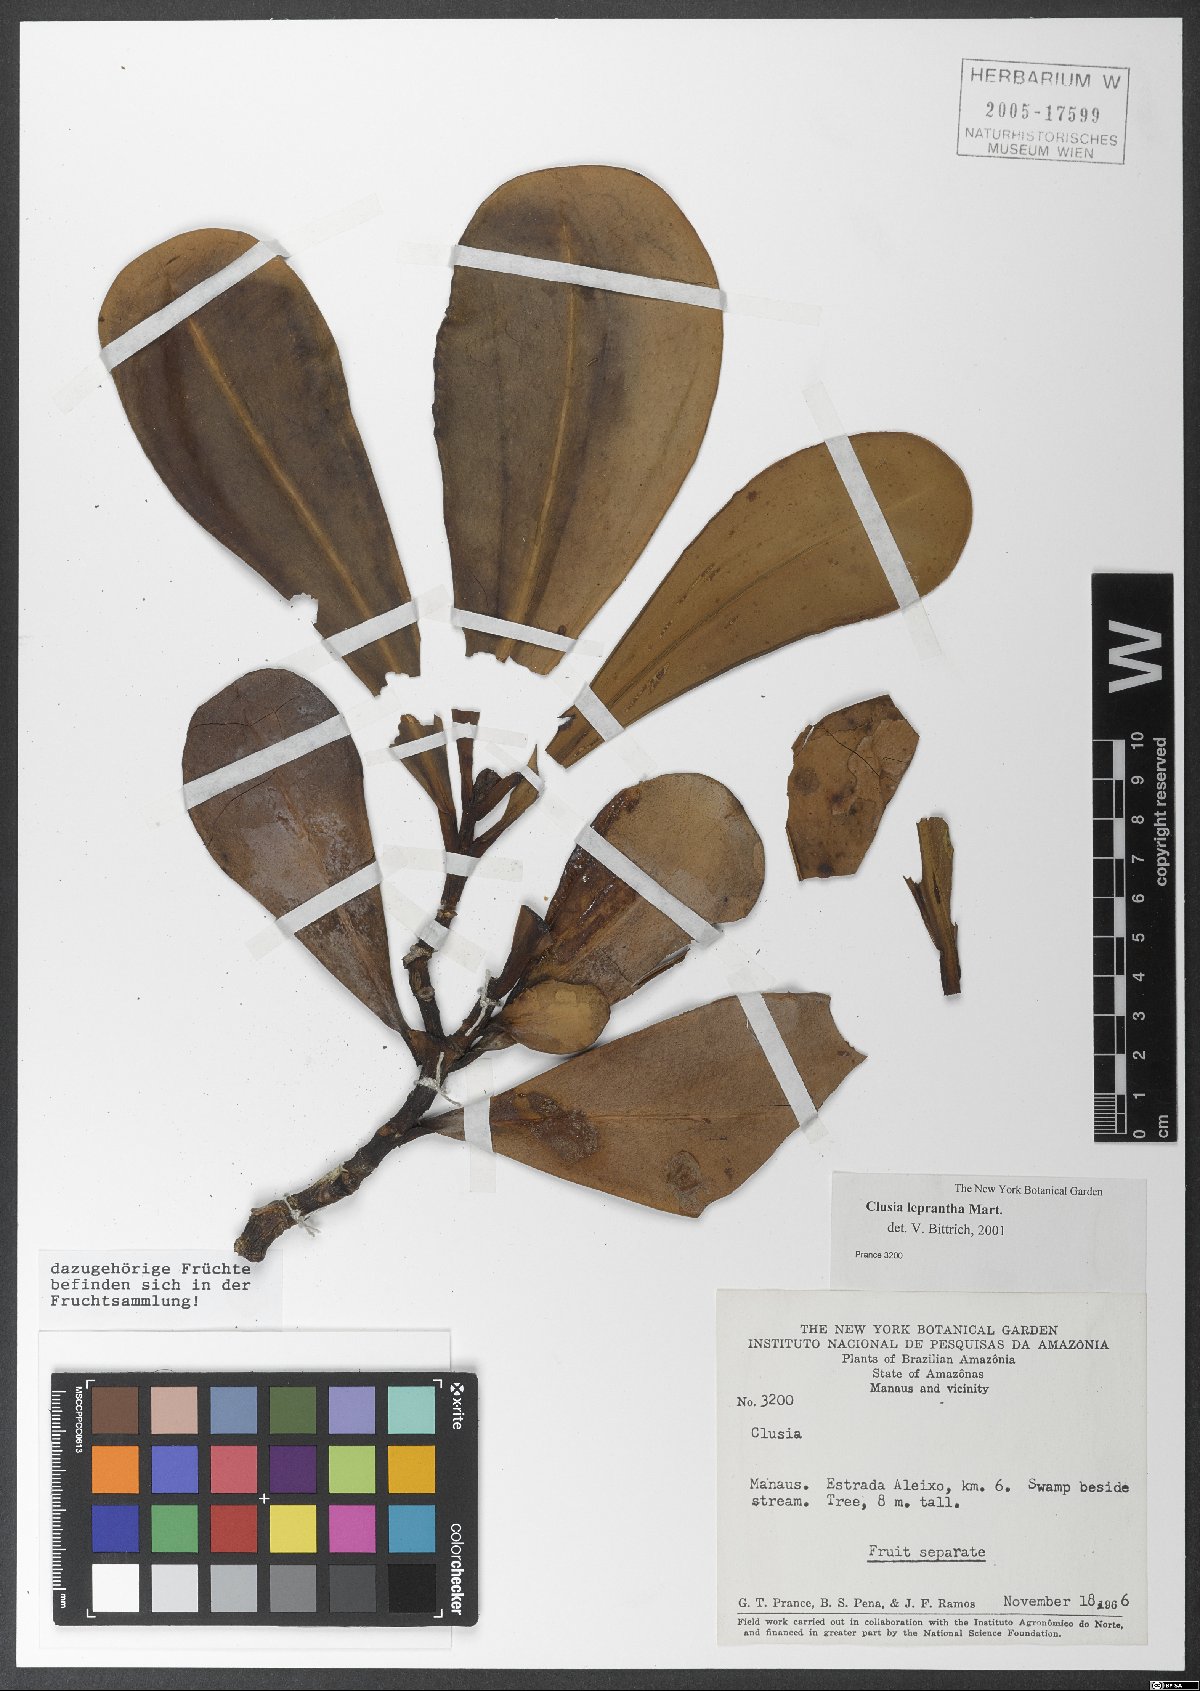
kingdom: Plantae
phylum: Tracheophyta
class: Magnoliopsida
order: Malpighiales
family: Clusiaceae
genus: Clusia
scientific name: Clusia leprantha
